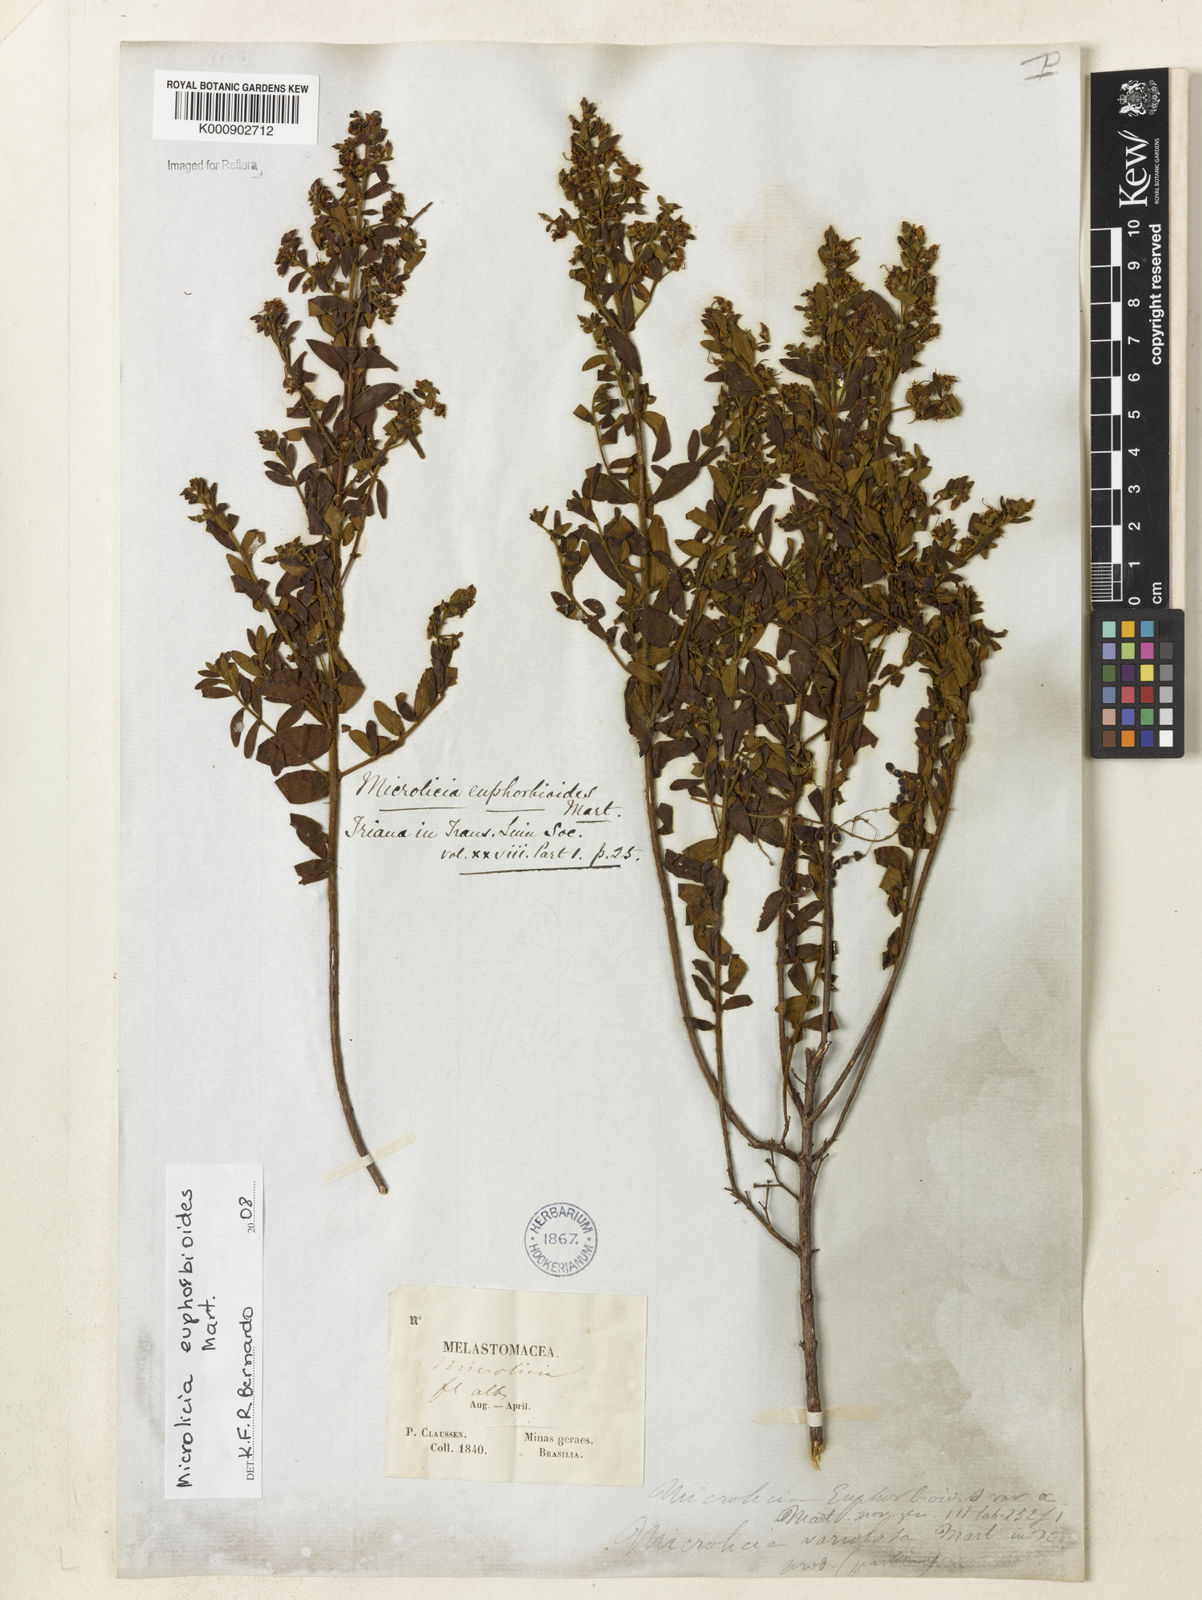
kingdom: Plantae
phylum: Tracheophyta
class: Magnoliopsida
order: Myrtales
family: Melastomataceae
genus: Microlicia
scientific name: Microlicia euphorbioides
